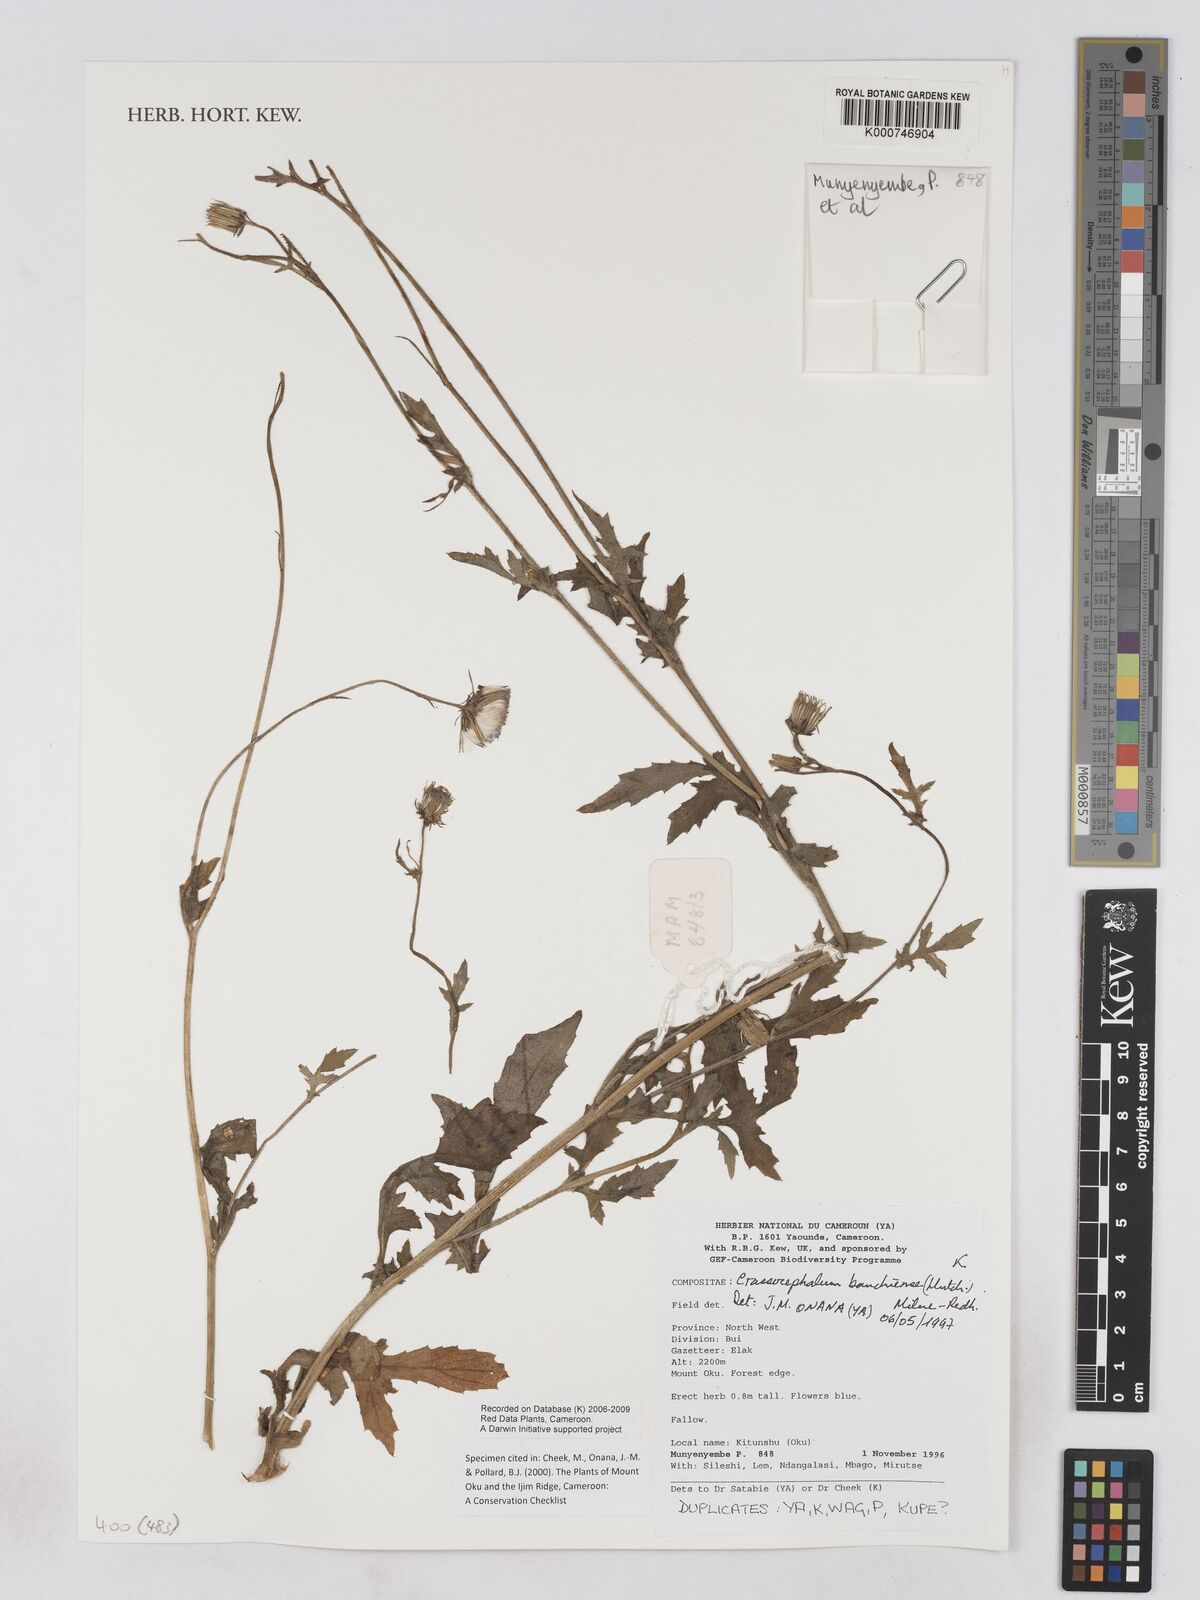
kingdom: Plantae
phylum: Tracheophyta
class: Magnoliopsida
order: Asterales
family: Asteraceae
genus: Crassocephalum
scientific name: Crassocephalum bauchiense
